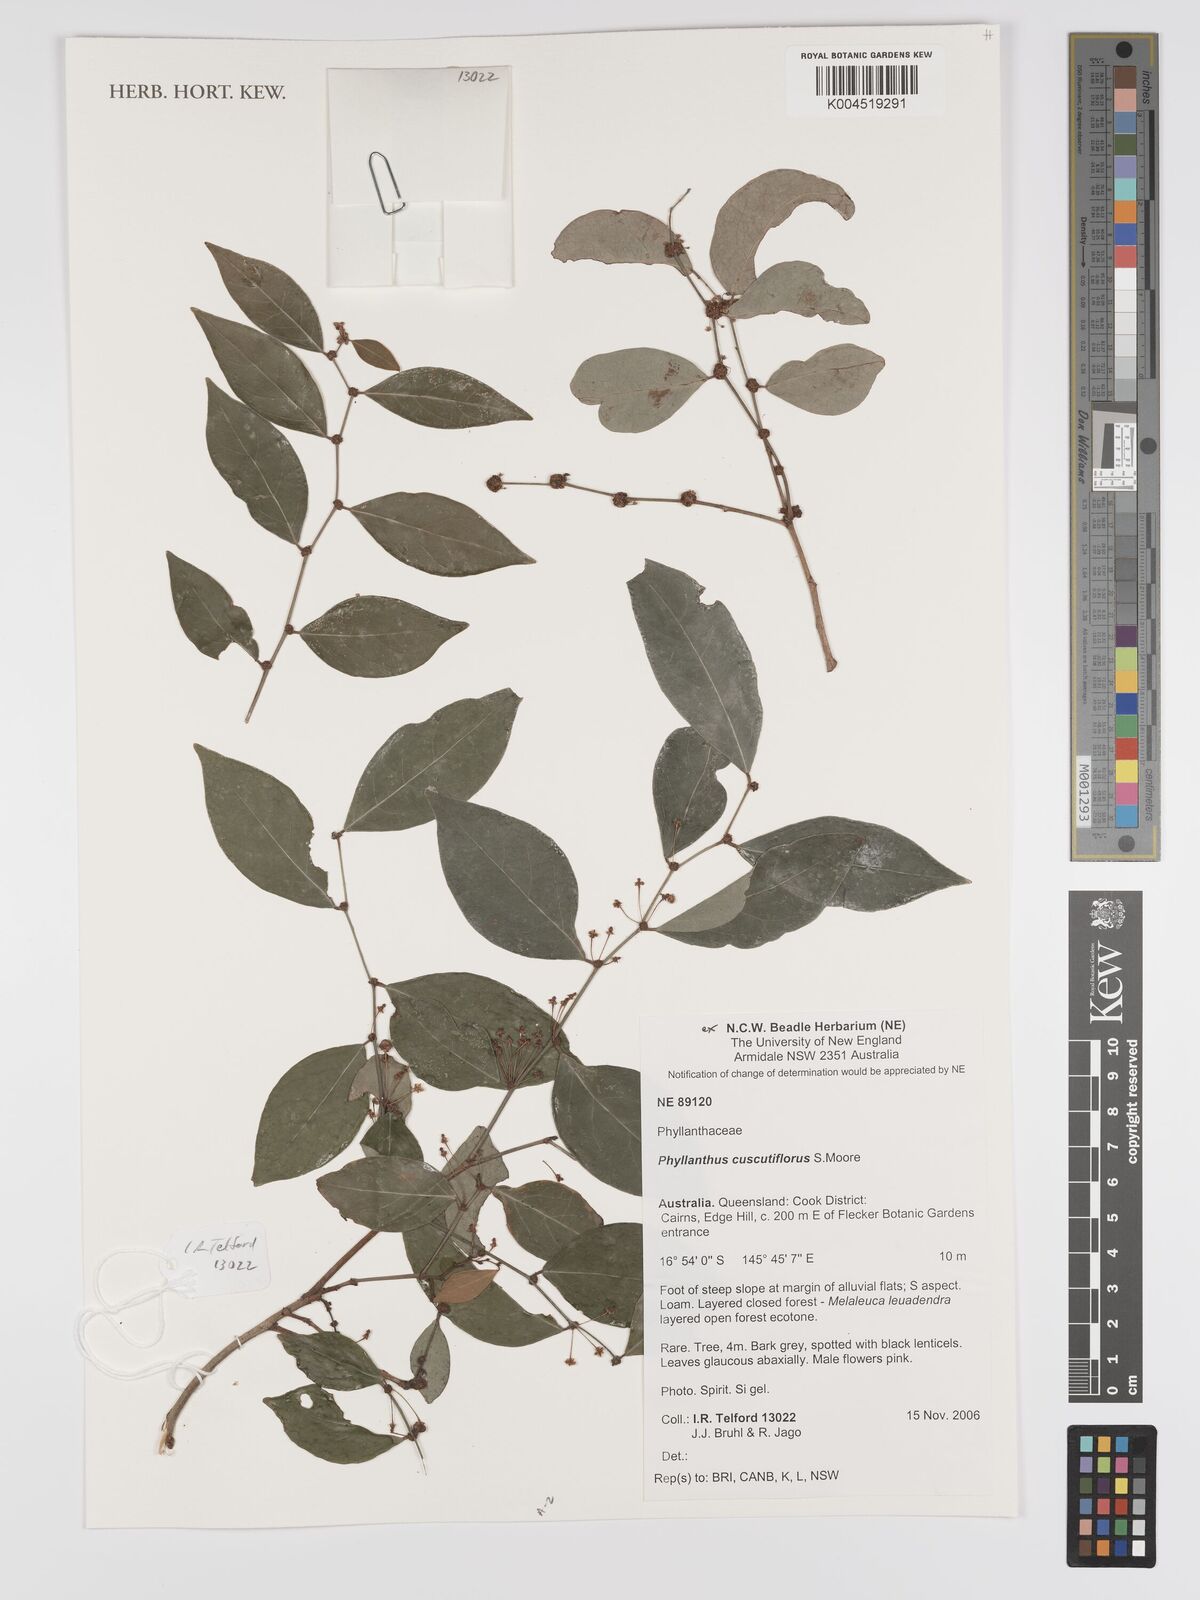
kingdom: Plantae
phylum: Tracheophyta
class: Magnoliopsida
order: Malpighiales
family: Phyllanthaceae
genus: Phyllanthus
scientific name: Phyllanthus cuscutiflorus
